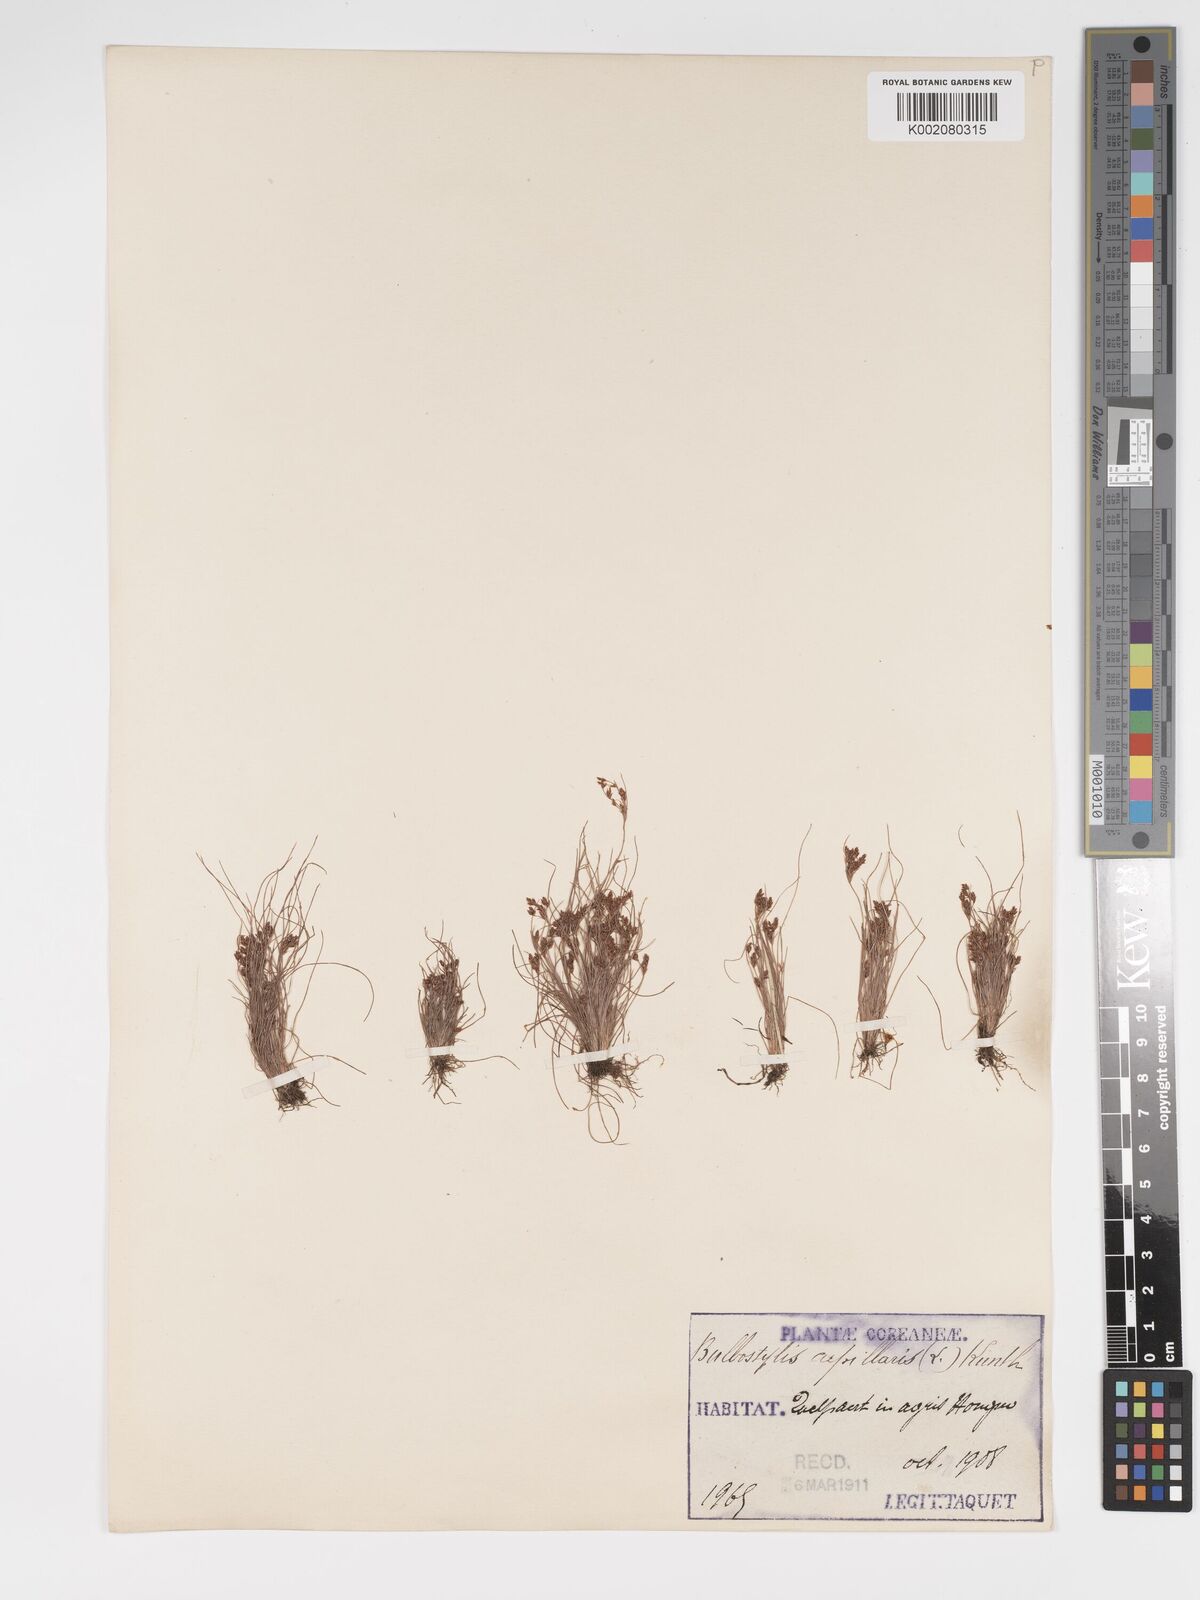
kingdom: Plantae
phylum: Tracheophyta
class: Liliopsida
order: Poales
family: Cyperaceae
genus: Bulbostylis
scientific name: Bulbostylis capillaris
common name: Densetuft hairsedge
